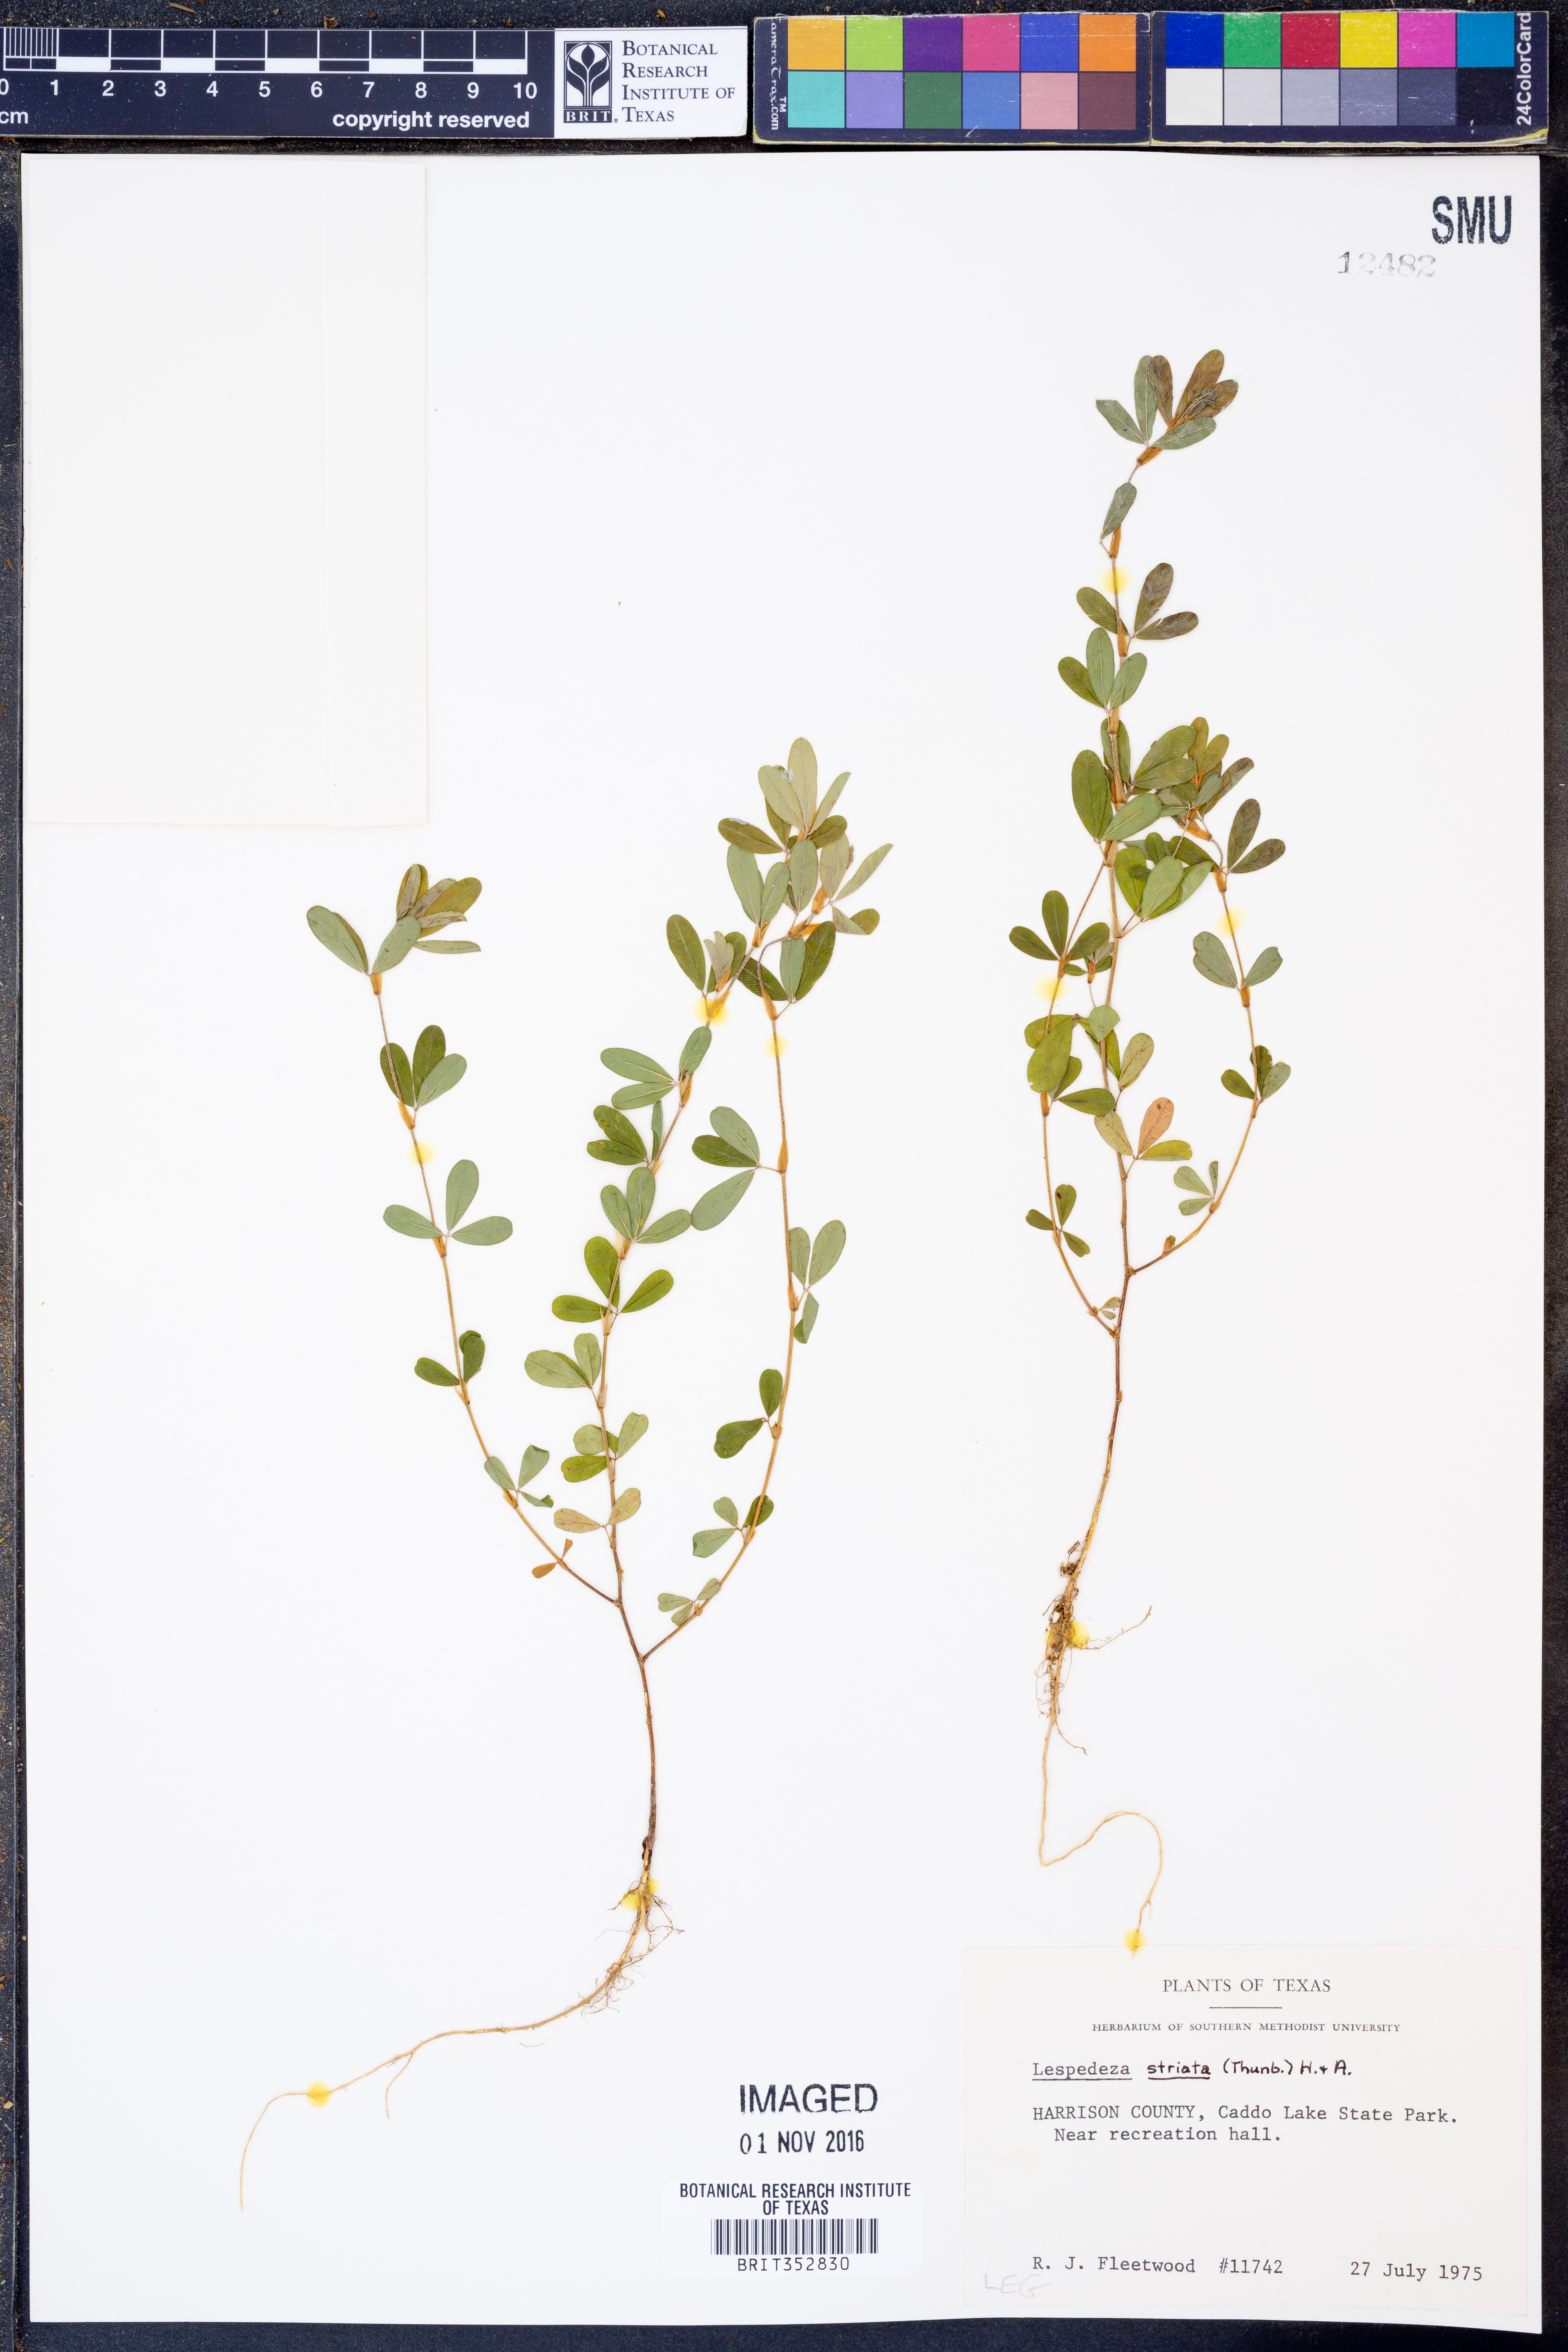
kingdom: Plantae
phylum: Tracheophyta
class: Magnoliopsida
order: Fabales
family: Fabaceae
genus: Kummerowia
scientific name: Kummerowia striata
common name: Japanese clover
